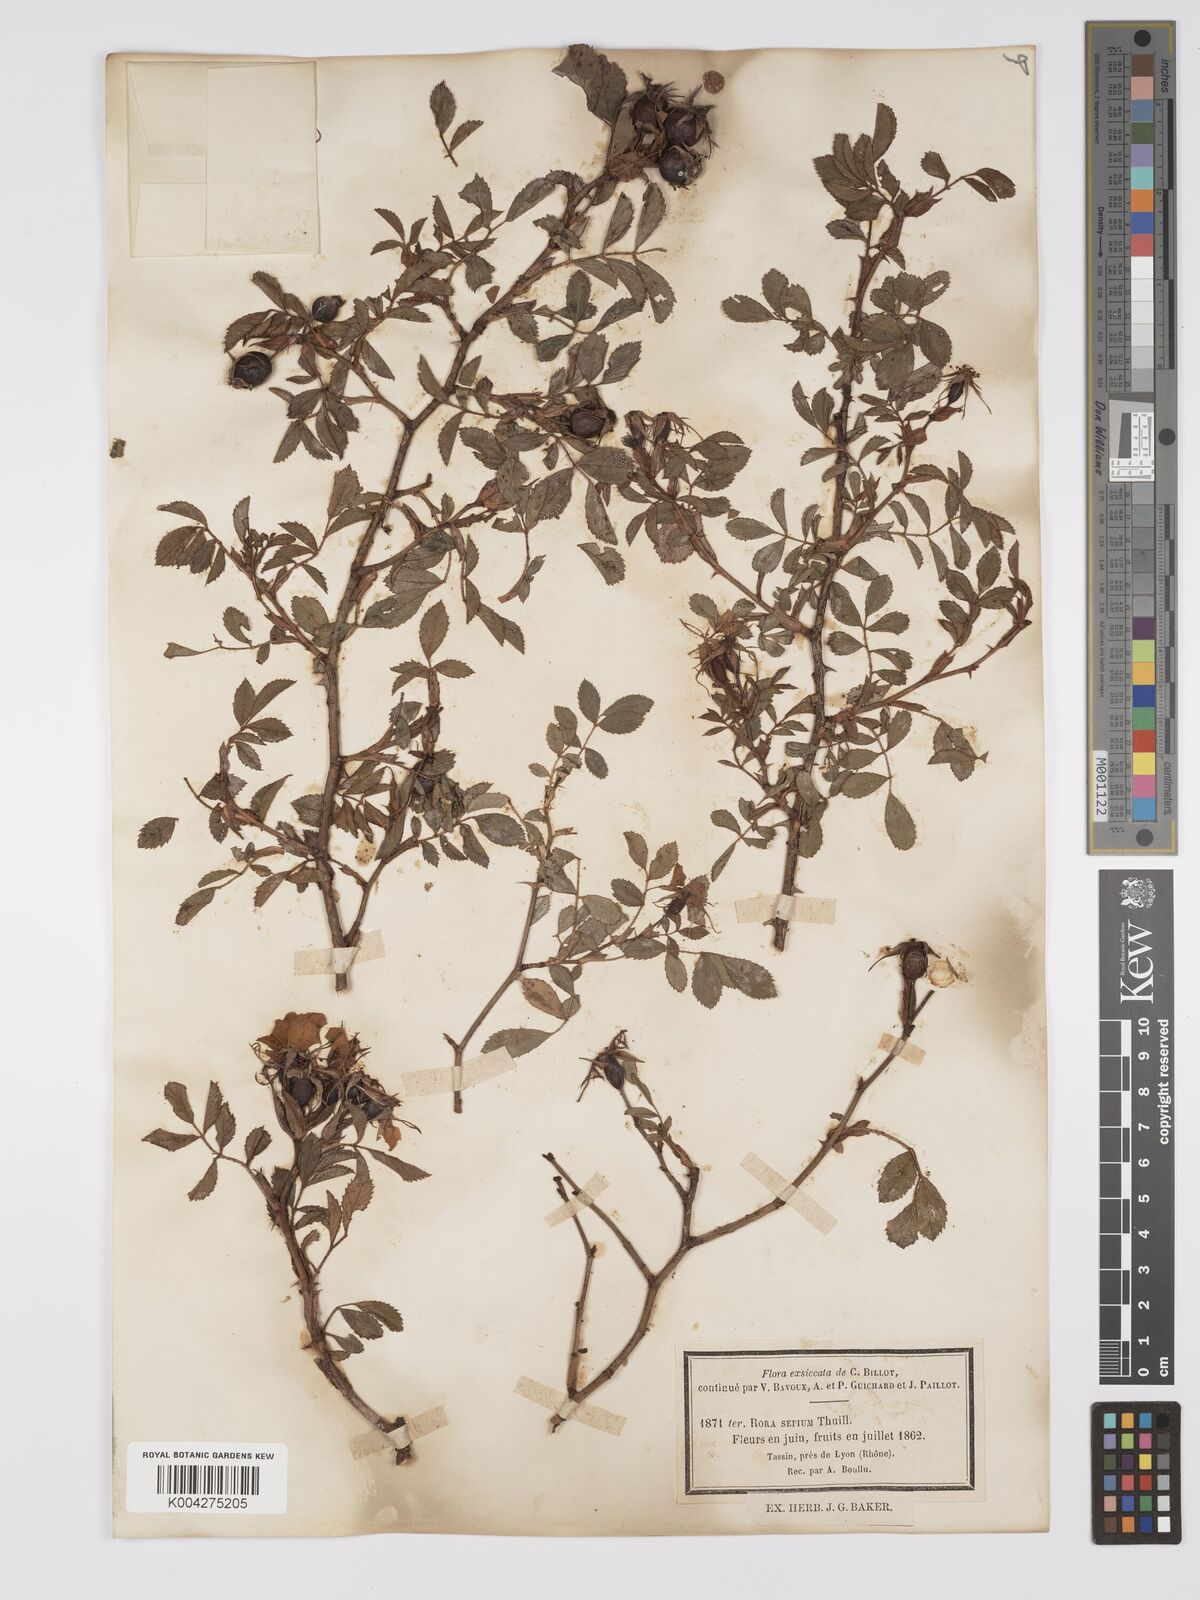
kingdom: Plantae
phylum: Tracheophyta
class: Magnoliopsida
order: Rosales
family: Rosaceae
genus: Rosa
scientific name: Rosa
